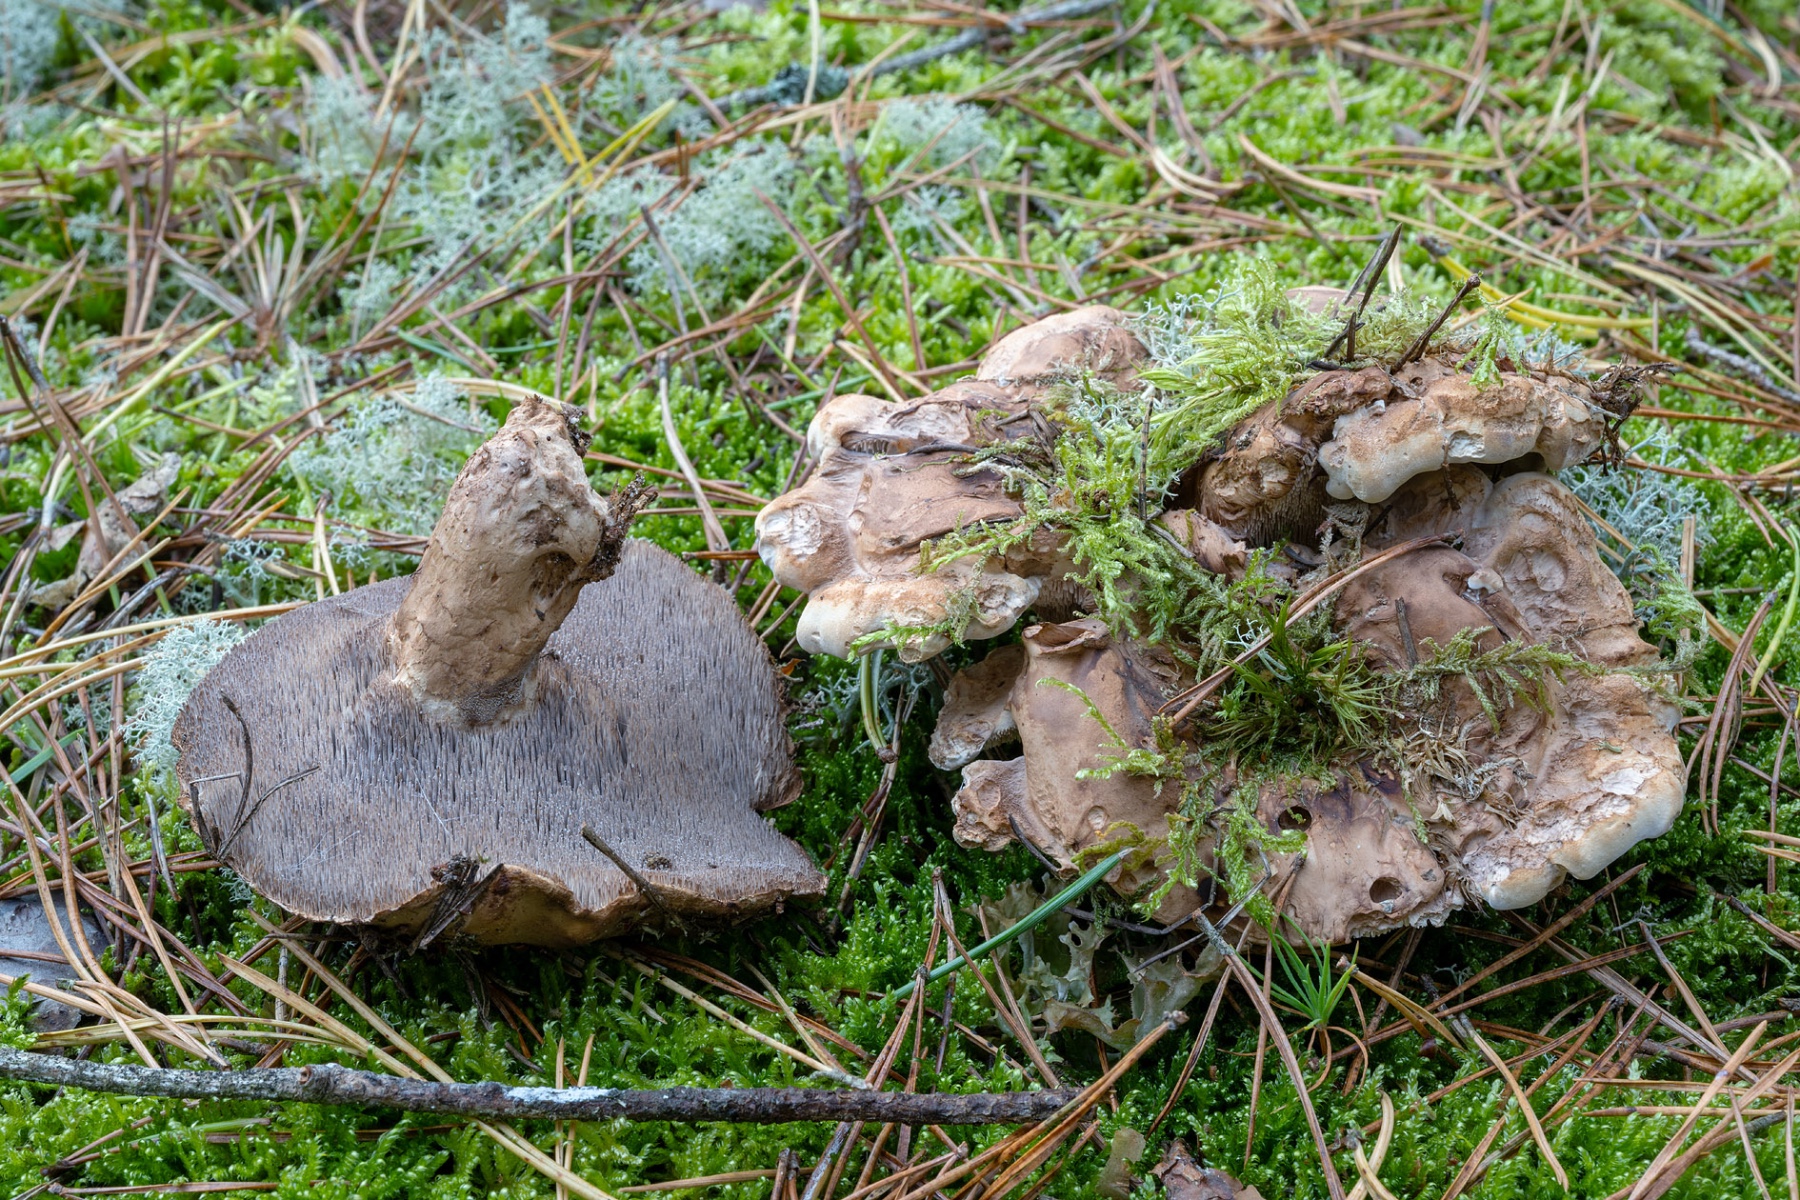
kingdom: Fungi
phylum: Basidiomycota
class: Agaricomycetes
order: Thelephorales
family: Thelephoraceae
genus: Phellodon
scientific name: Phellodon fuligineoalbus
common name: pjusket duftpigsvamp
